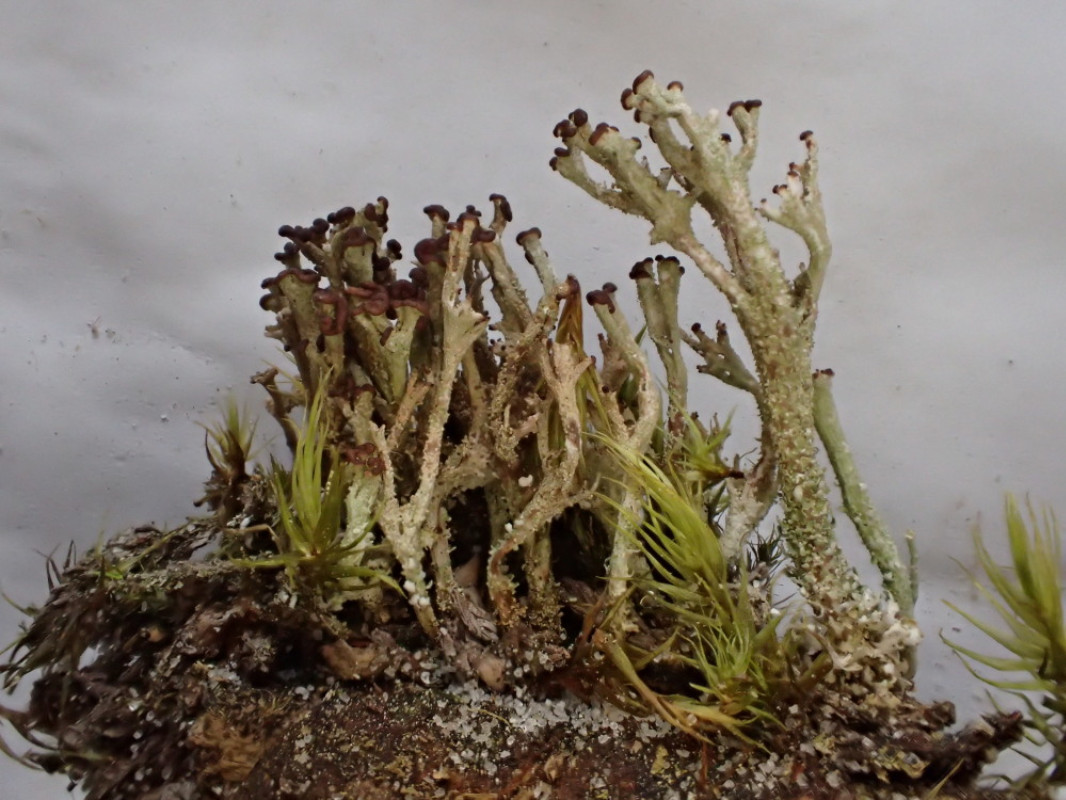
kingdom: Fungi
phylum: Ascomycota
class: Lecanoromycetes
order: Lecanorales
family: Cladoniaceae
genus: Cladonia
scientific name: Cladonia ramulosa
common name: kliddet bægerlav
